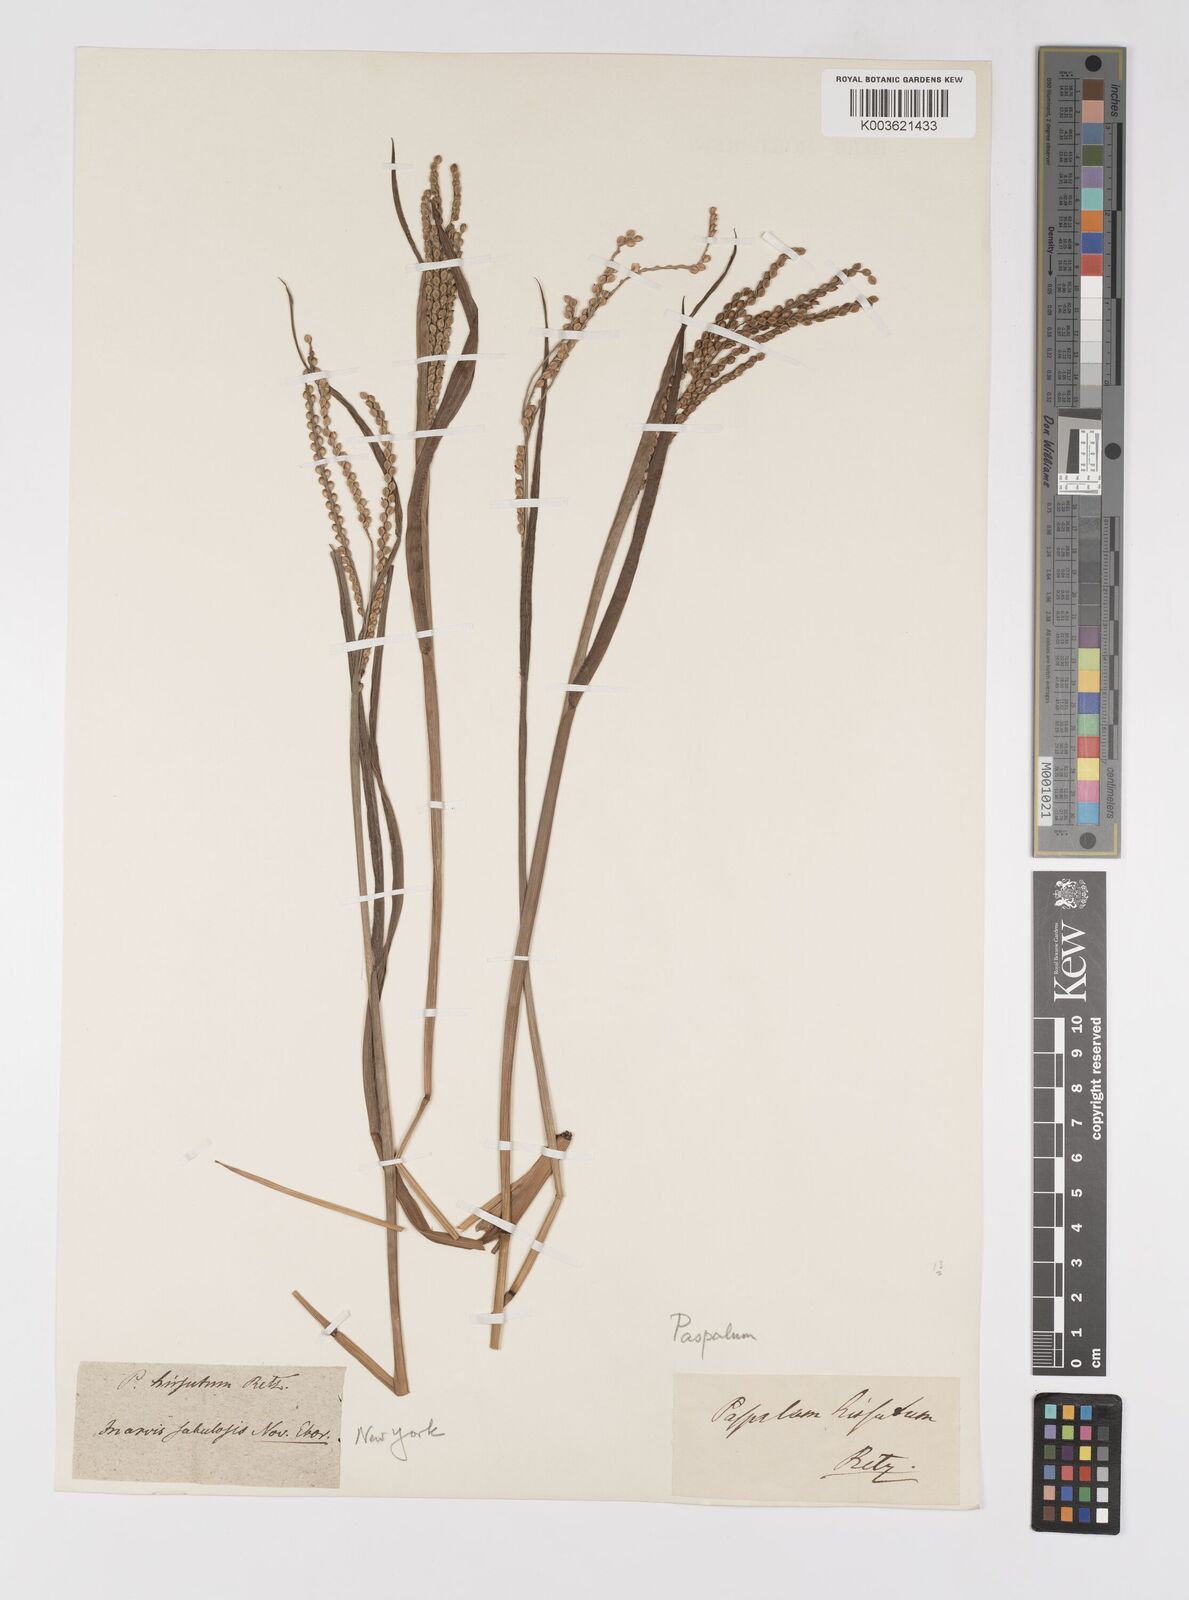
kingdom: Plantae
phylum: Tracheophyta
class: Liliopsida
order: Poales
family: Poaceae
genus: Paspalum
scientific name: Paspalum
